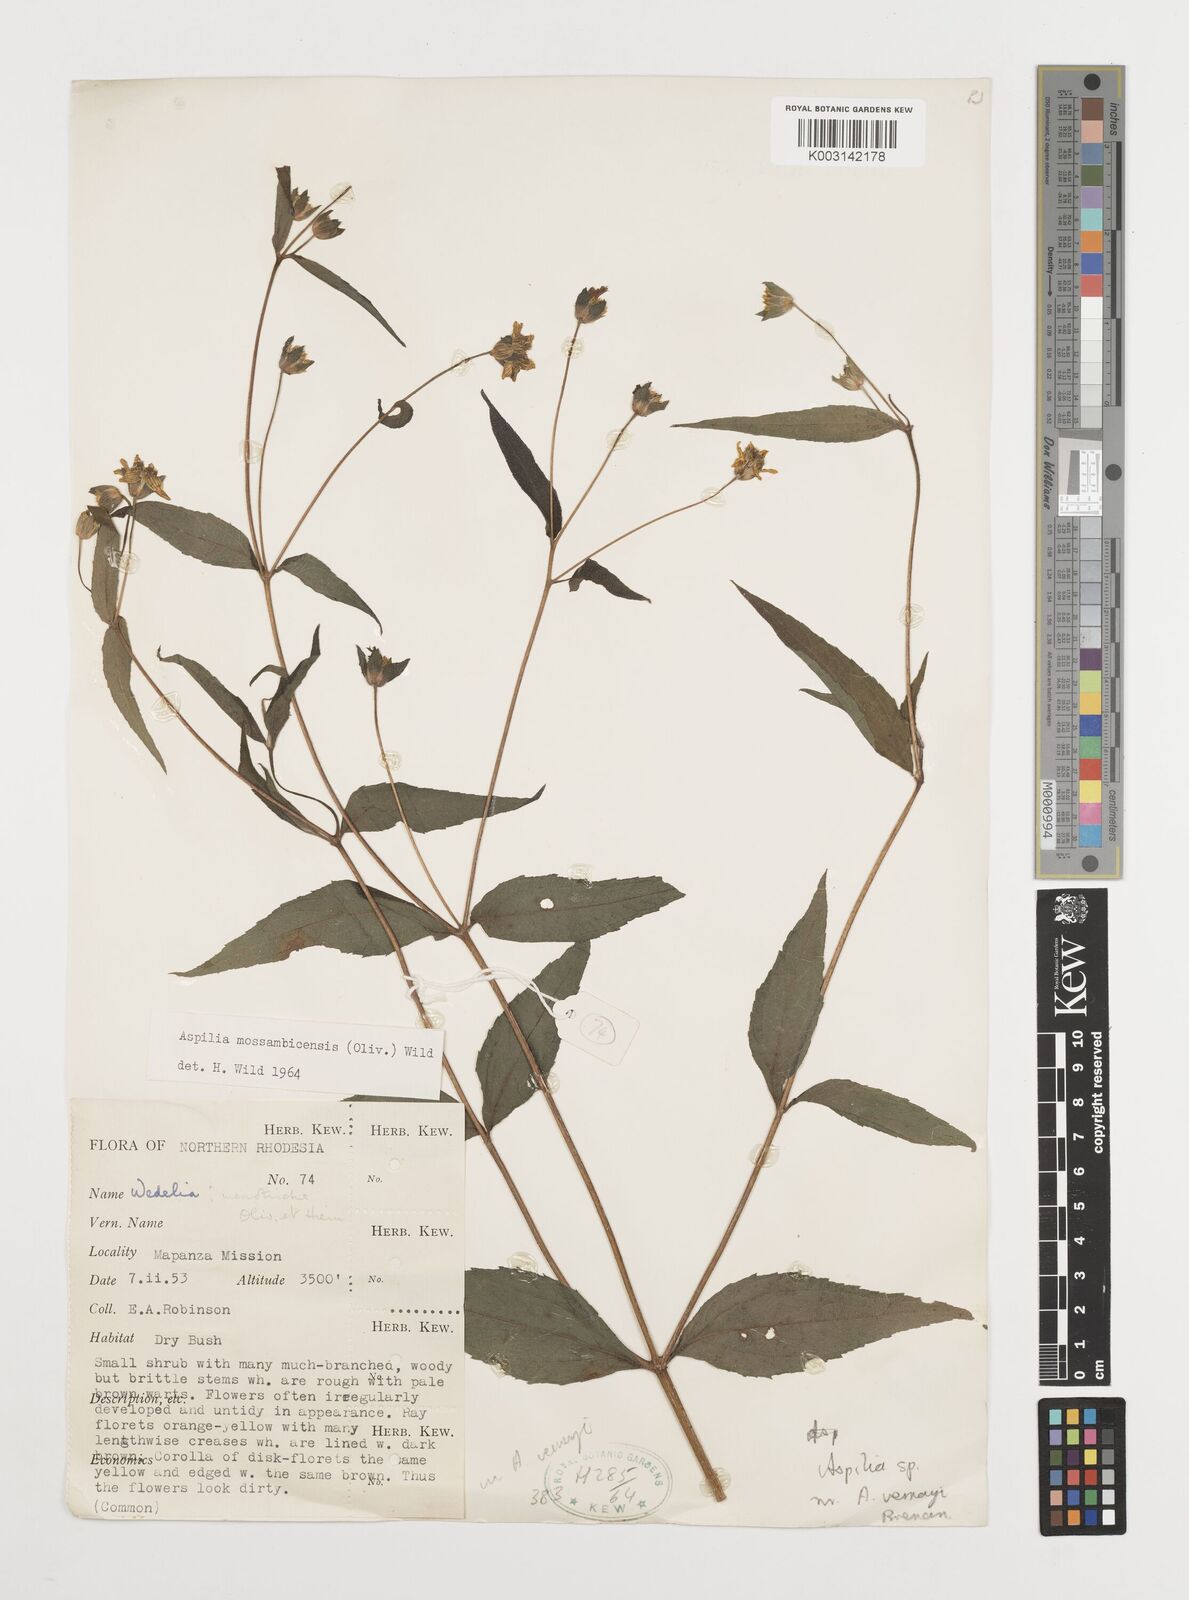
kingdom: Plantae
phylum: Tracheophyta
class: Magnoliopsida
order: Asterales
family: Asteraceae
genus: Aspilia
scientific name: Aspilia mossambicensis
